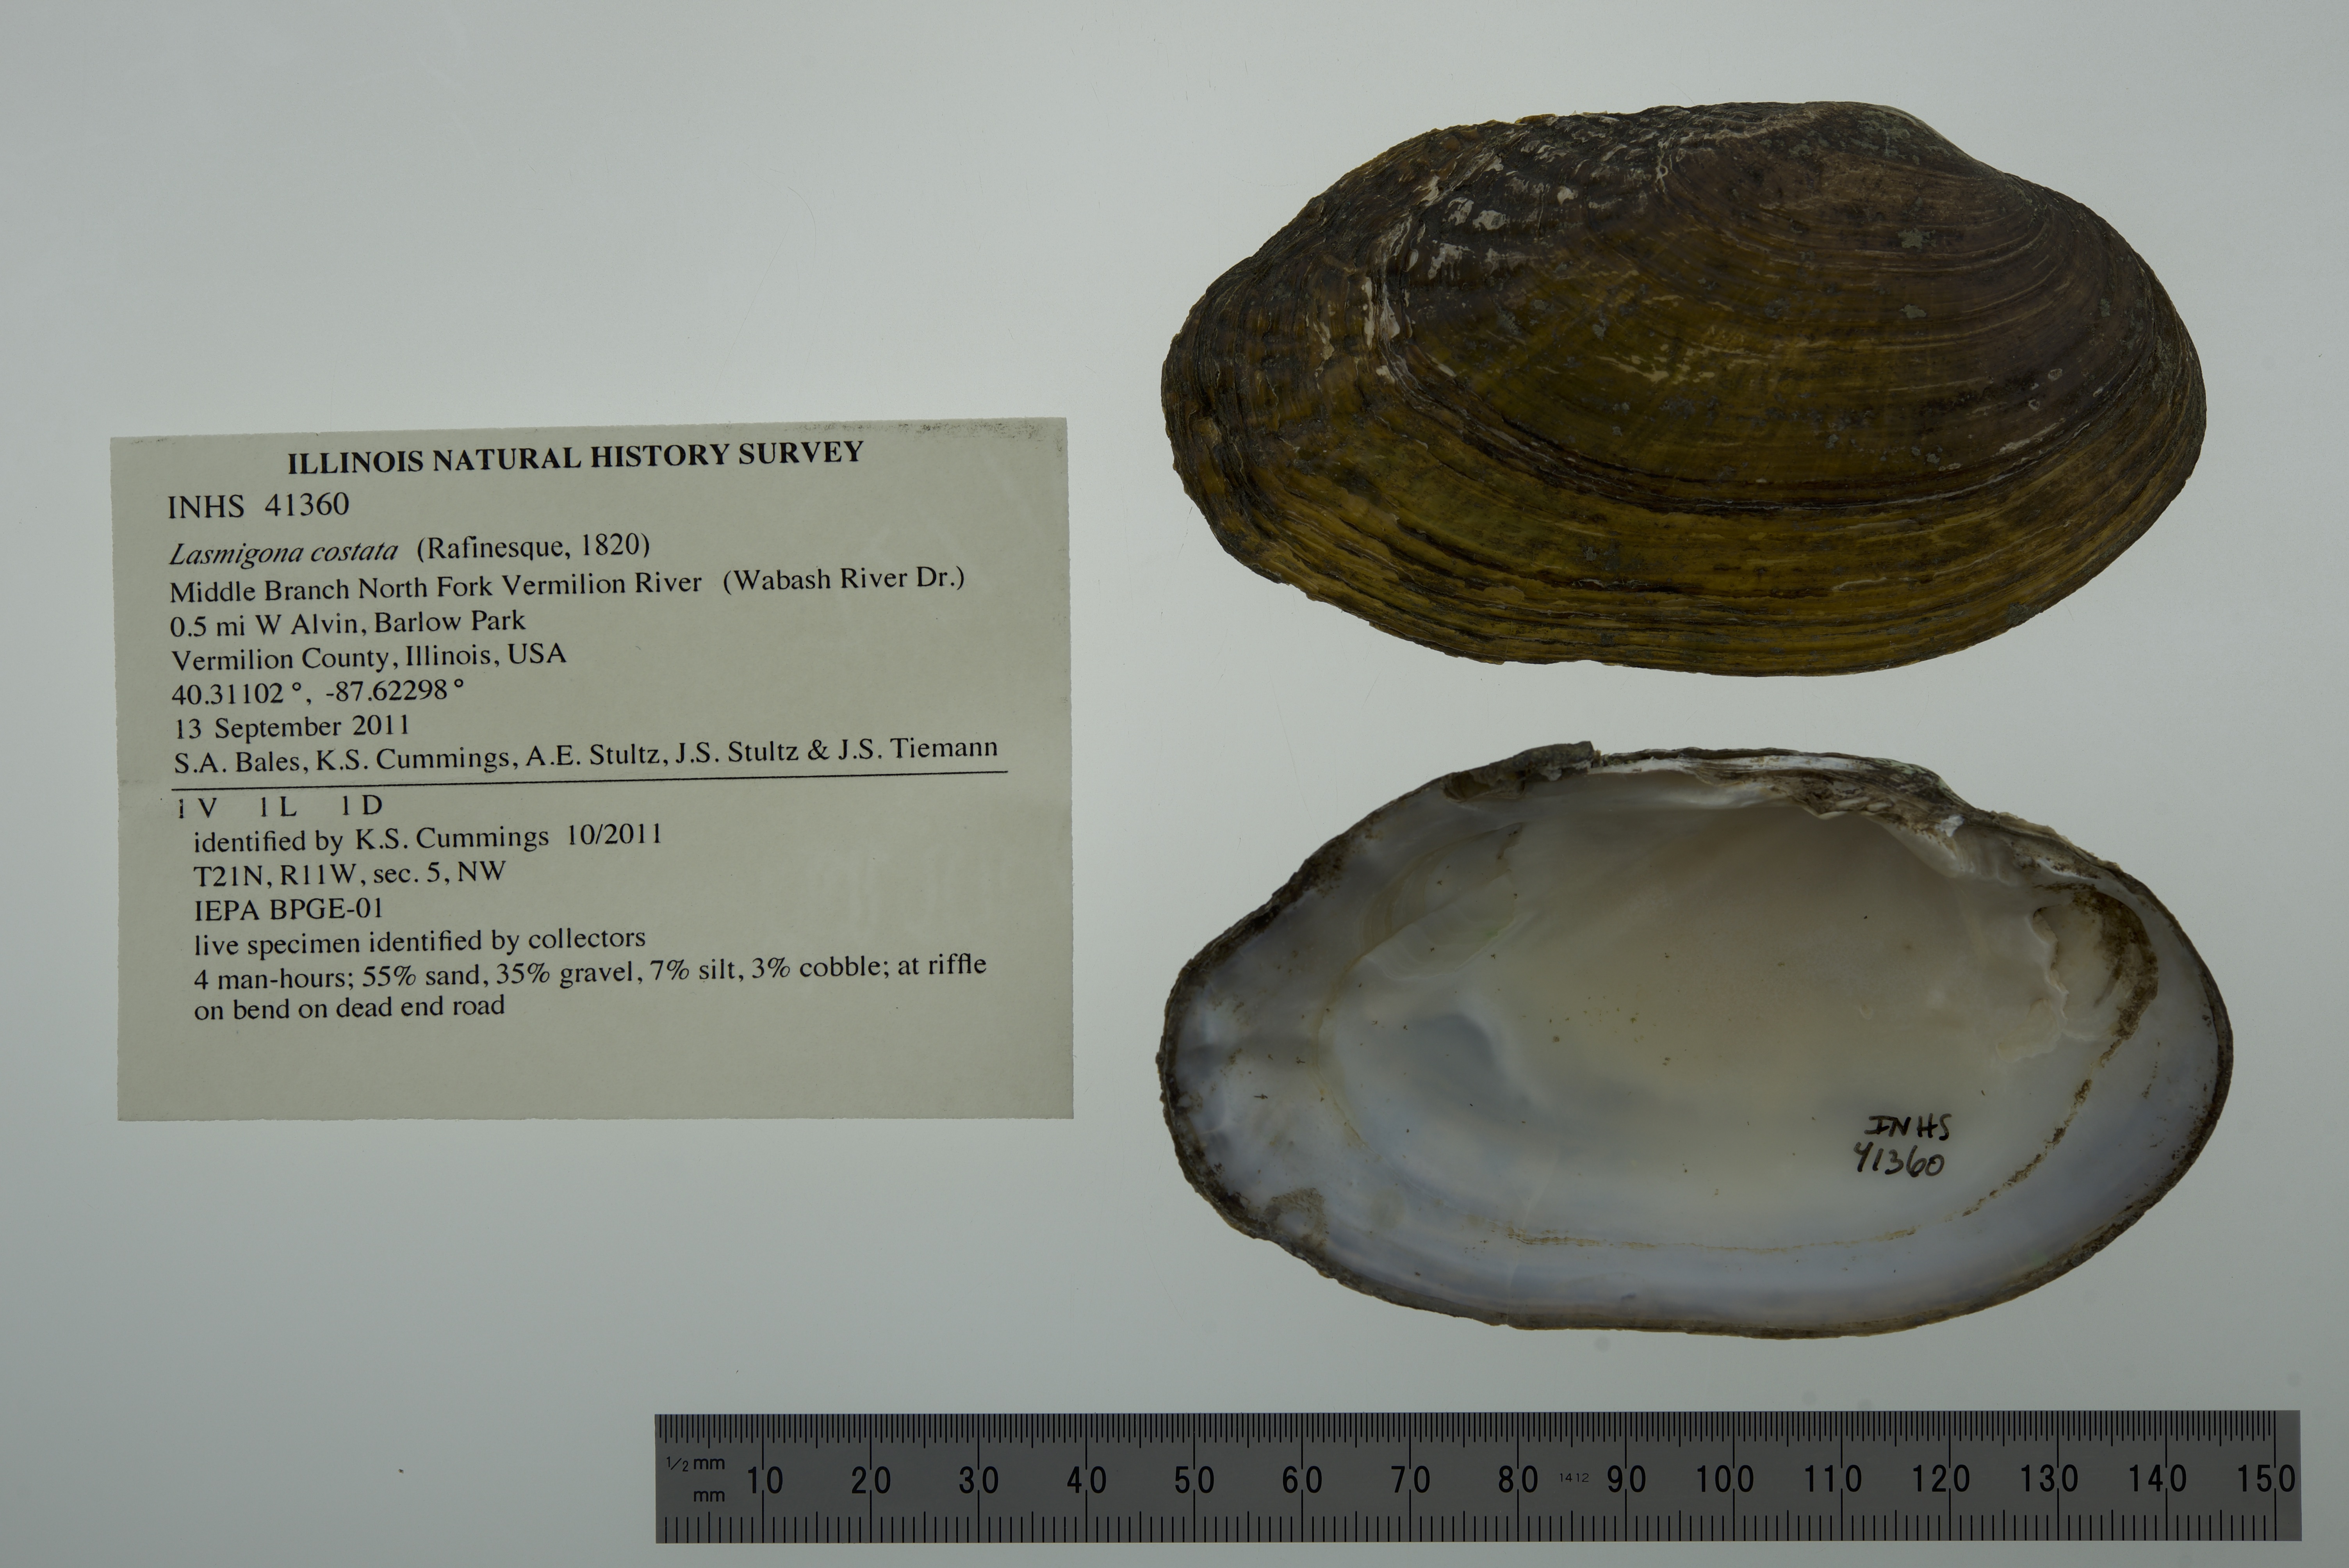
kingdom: Animalia
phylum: Mollusca
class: Bivalvia
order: Unionida
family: Unionidae
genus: Lasmigona
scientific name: Lasmigona costata
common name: Flutedshell
